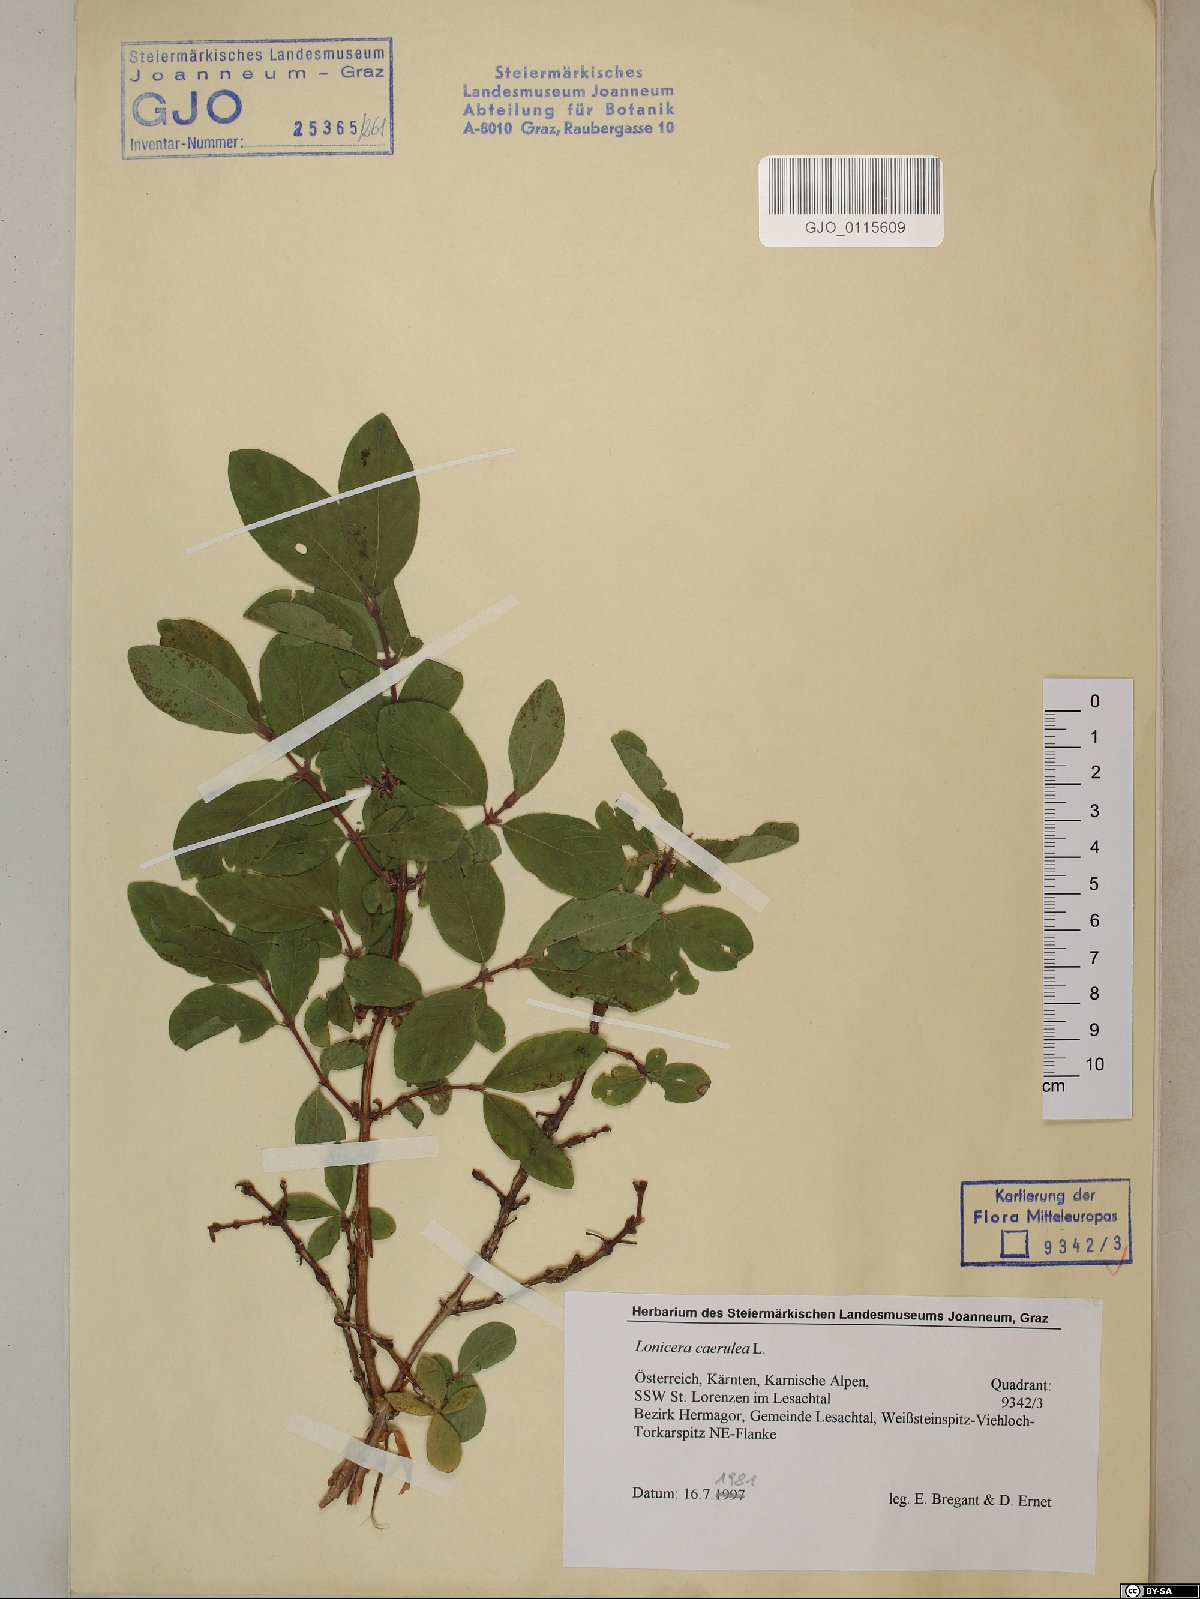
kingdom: Plantae
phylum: Tracheophyta
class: Magnoliopsida
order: Dipsacales
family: Caprifoliaceae
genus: Lonicera
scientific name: Lonicera caerulea
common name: Blue honeysuckle
